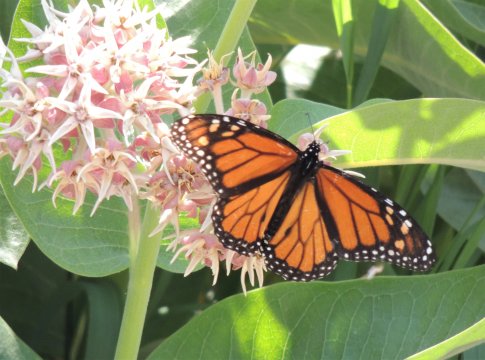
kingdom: Animalia
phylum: Arthropoda
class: Insecta
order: Lepidoptera
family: Nymphalidae
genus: Danaus
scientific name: Danaus plexippus
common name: Monarch
